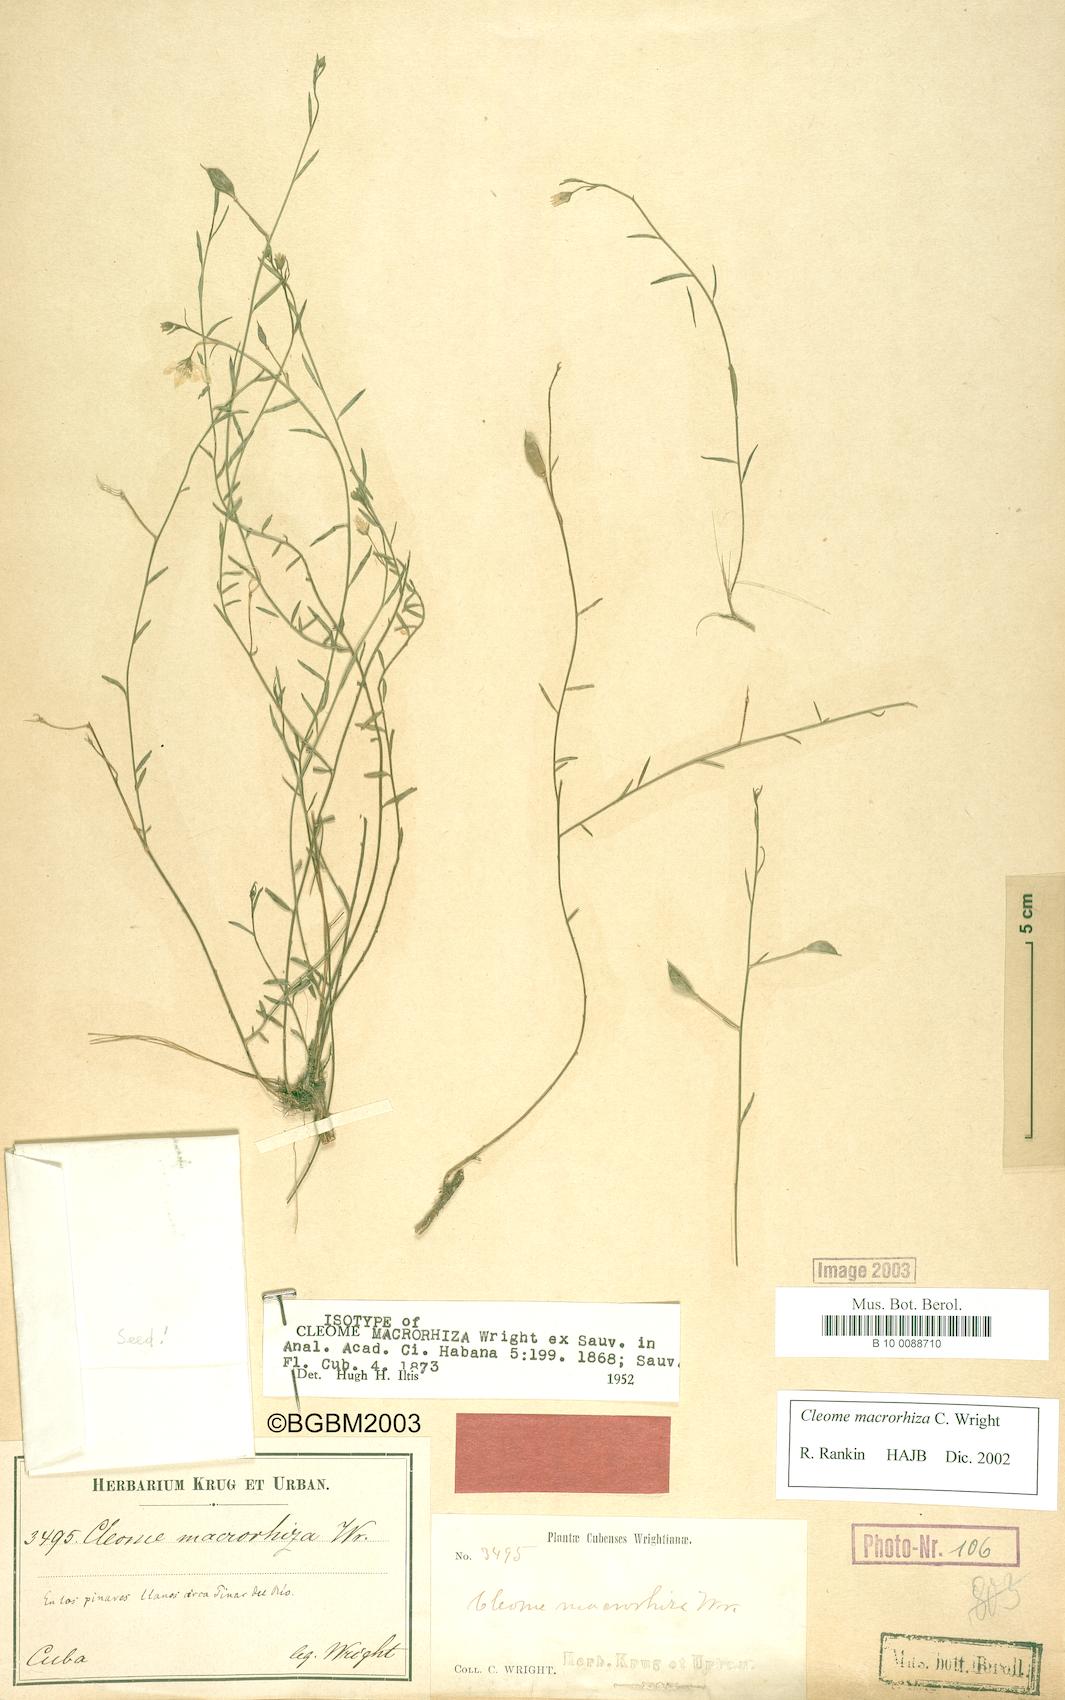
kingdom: Plantae
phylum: Tracheophyta
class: Magnoliopsida
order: Brassicales
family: Cleomaceae
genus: Physostemon
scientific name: Physostemon macrorhizus
